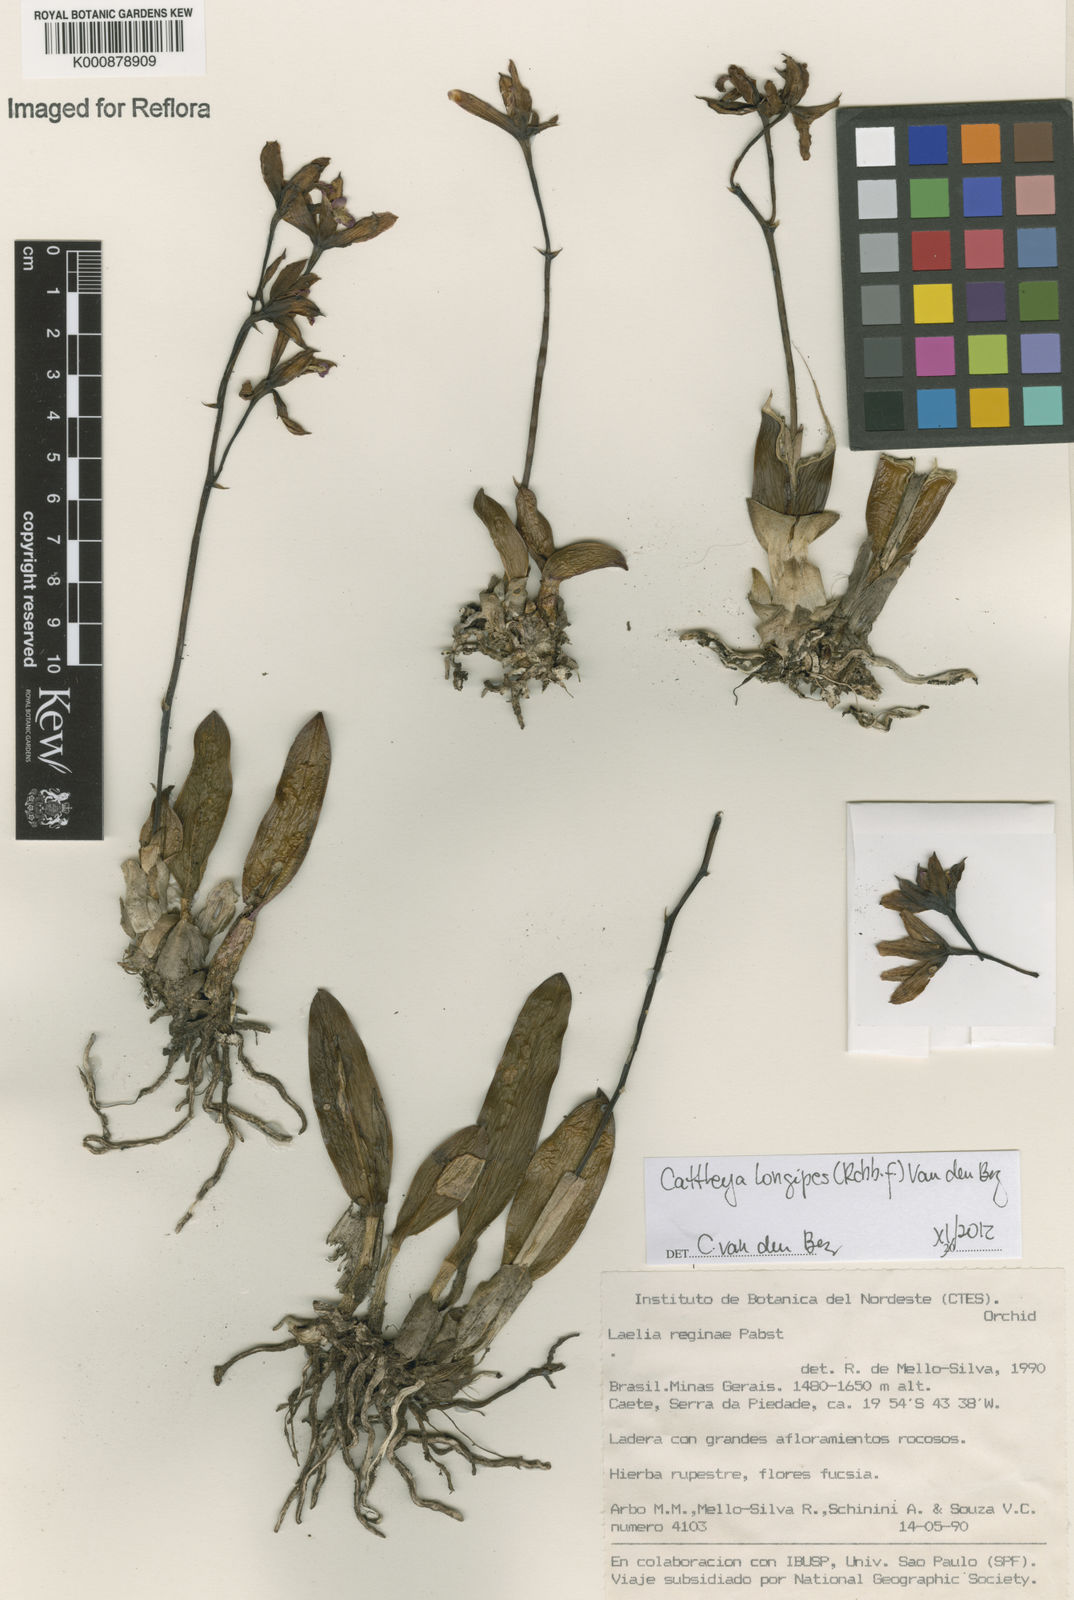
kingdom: Plantae
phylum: Tracheophyta
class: Liliopsida
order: Asparagales
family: Orchidaceae
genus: Cattleya
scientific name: Cattleya longipes
